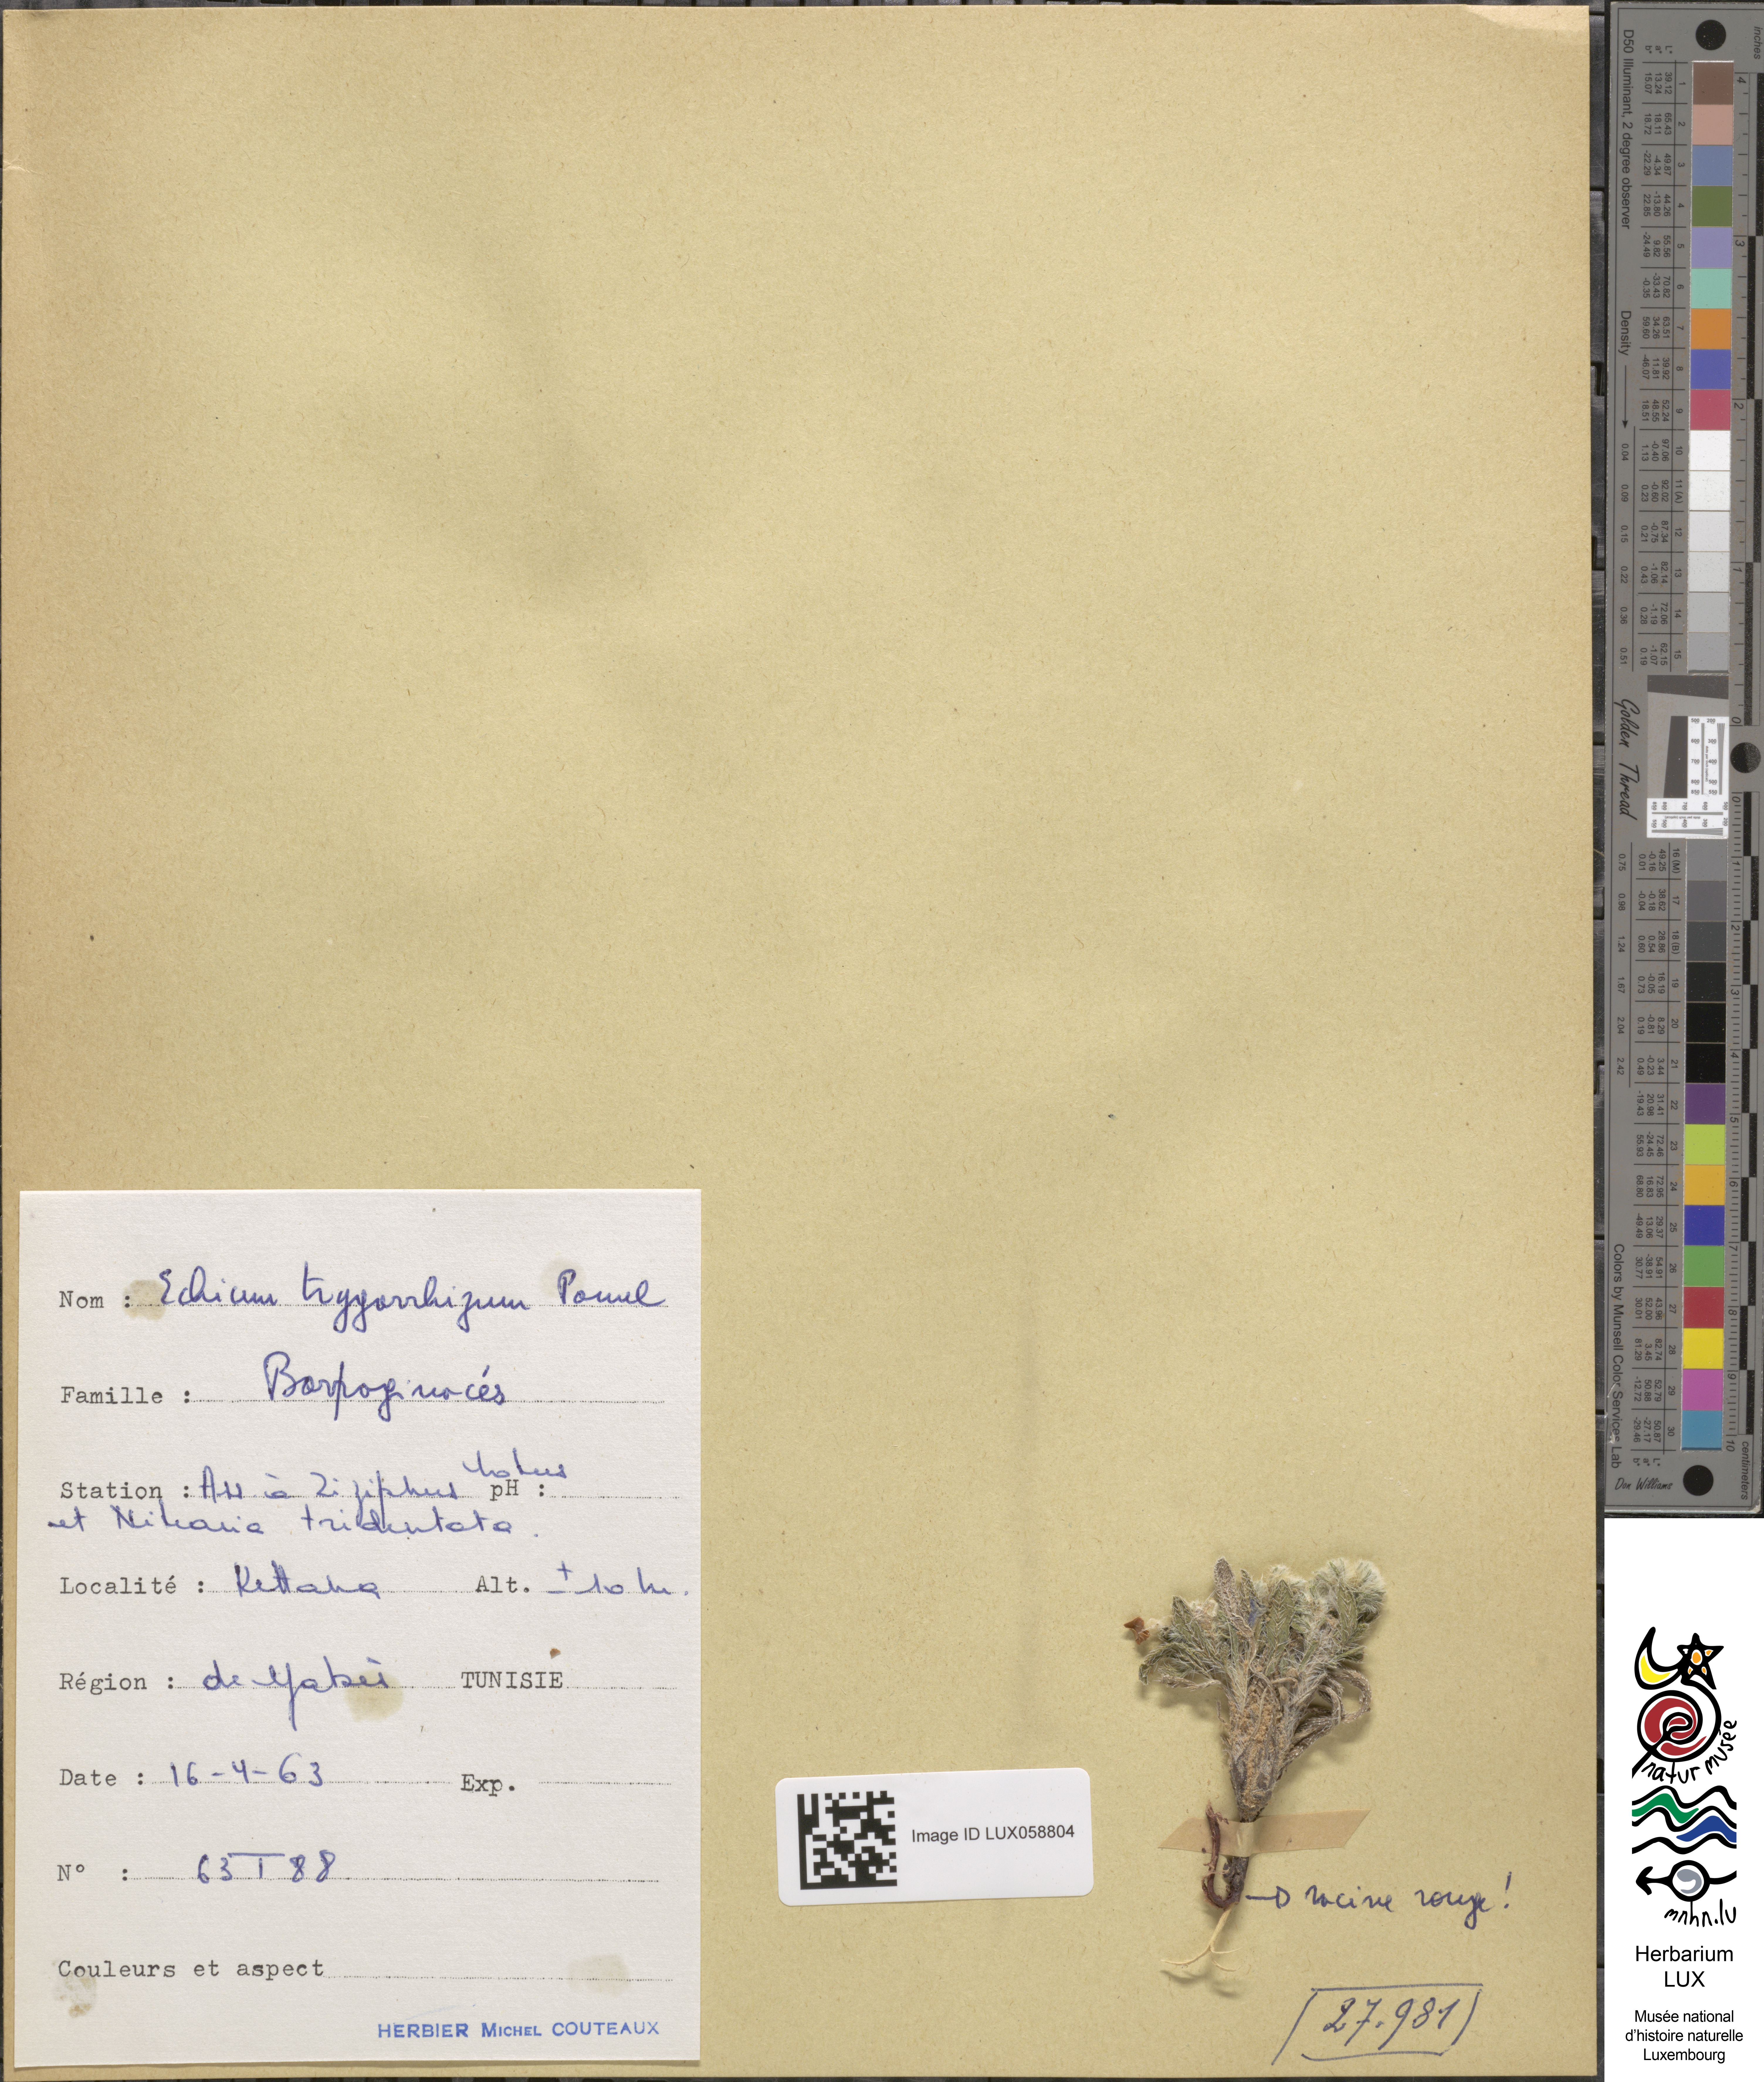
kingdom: Plantae
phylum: Tracheophyta
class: Magnoliopsida
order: Boraginales
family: Boraginaceae
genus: Echium
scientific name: Echium trygorrhizum
